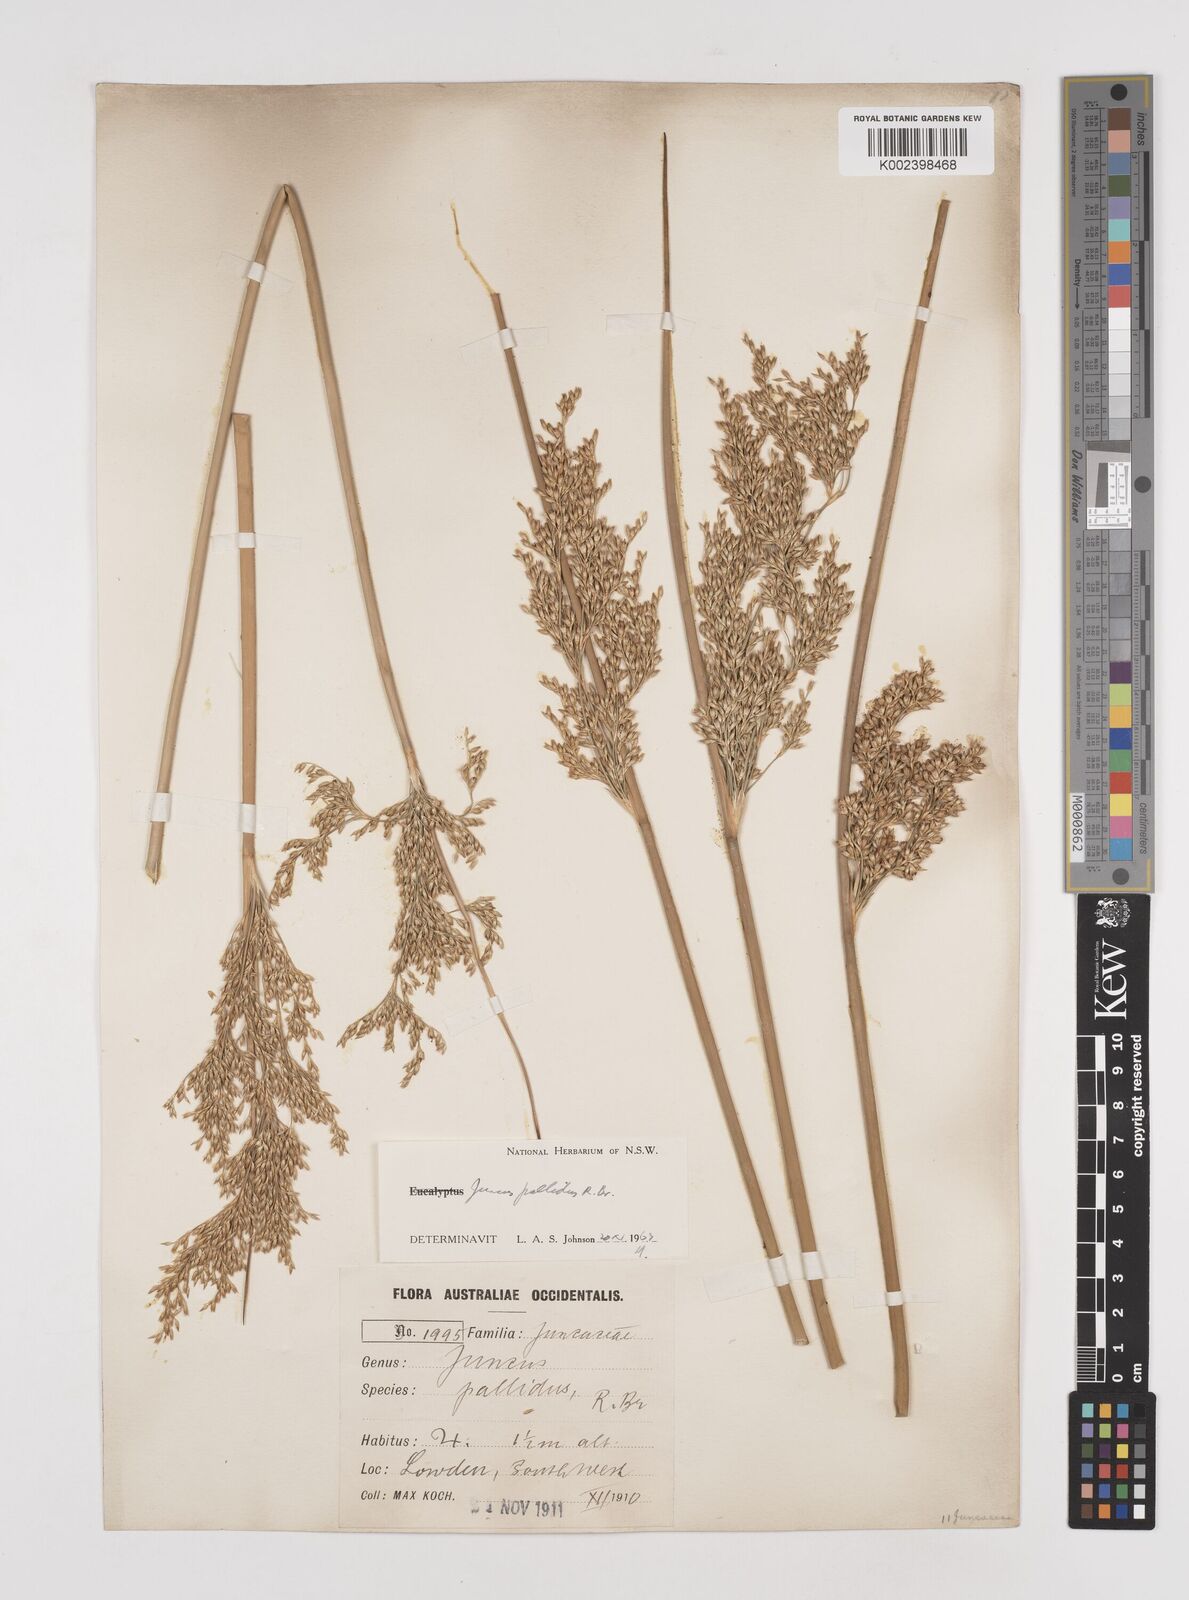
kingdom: Plantae
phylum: Tracheophyta
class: Liliopsida
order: Poales
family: Juncaceae
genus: Juncus
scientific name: Juncus pallidus
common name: Great soft-rush
